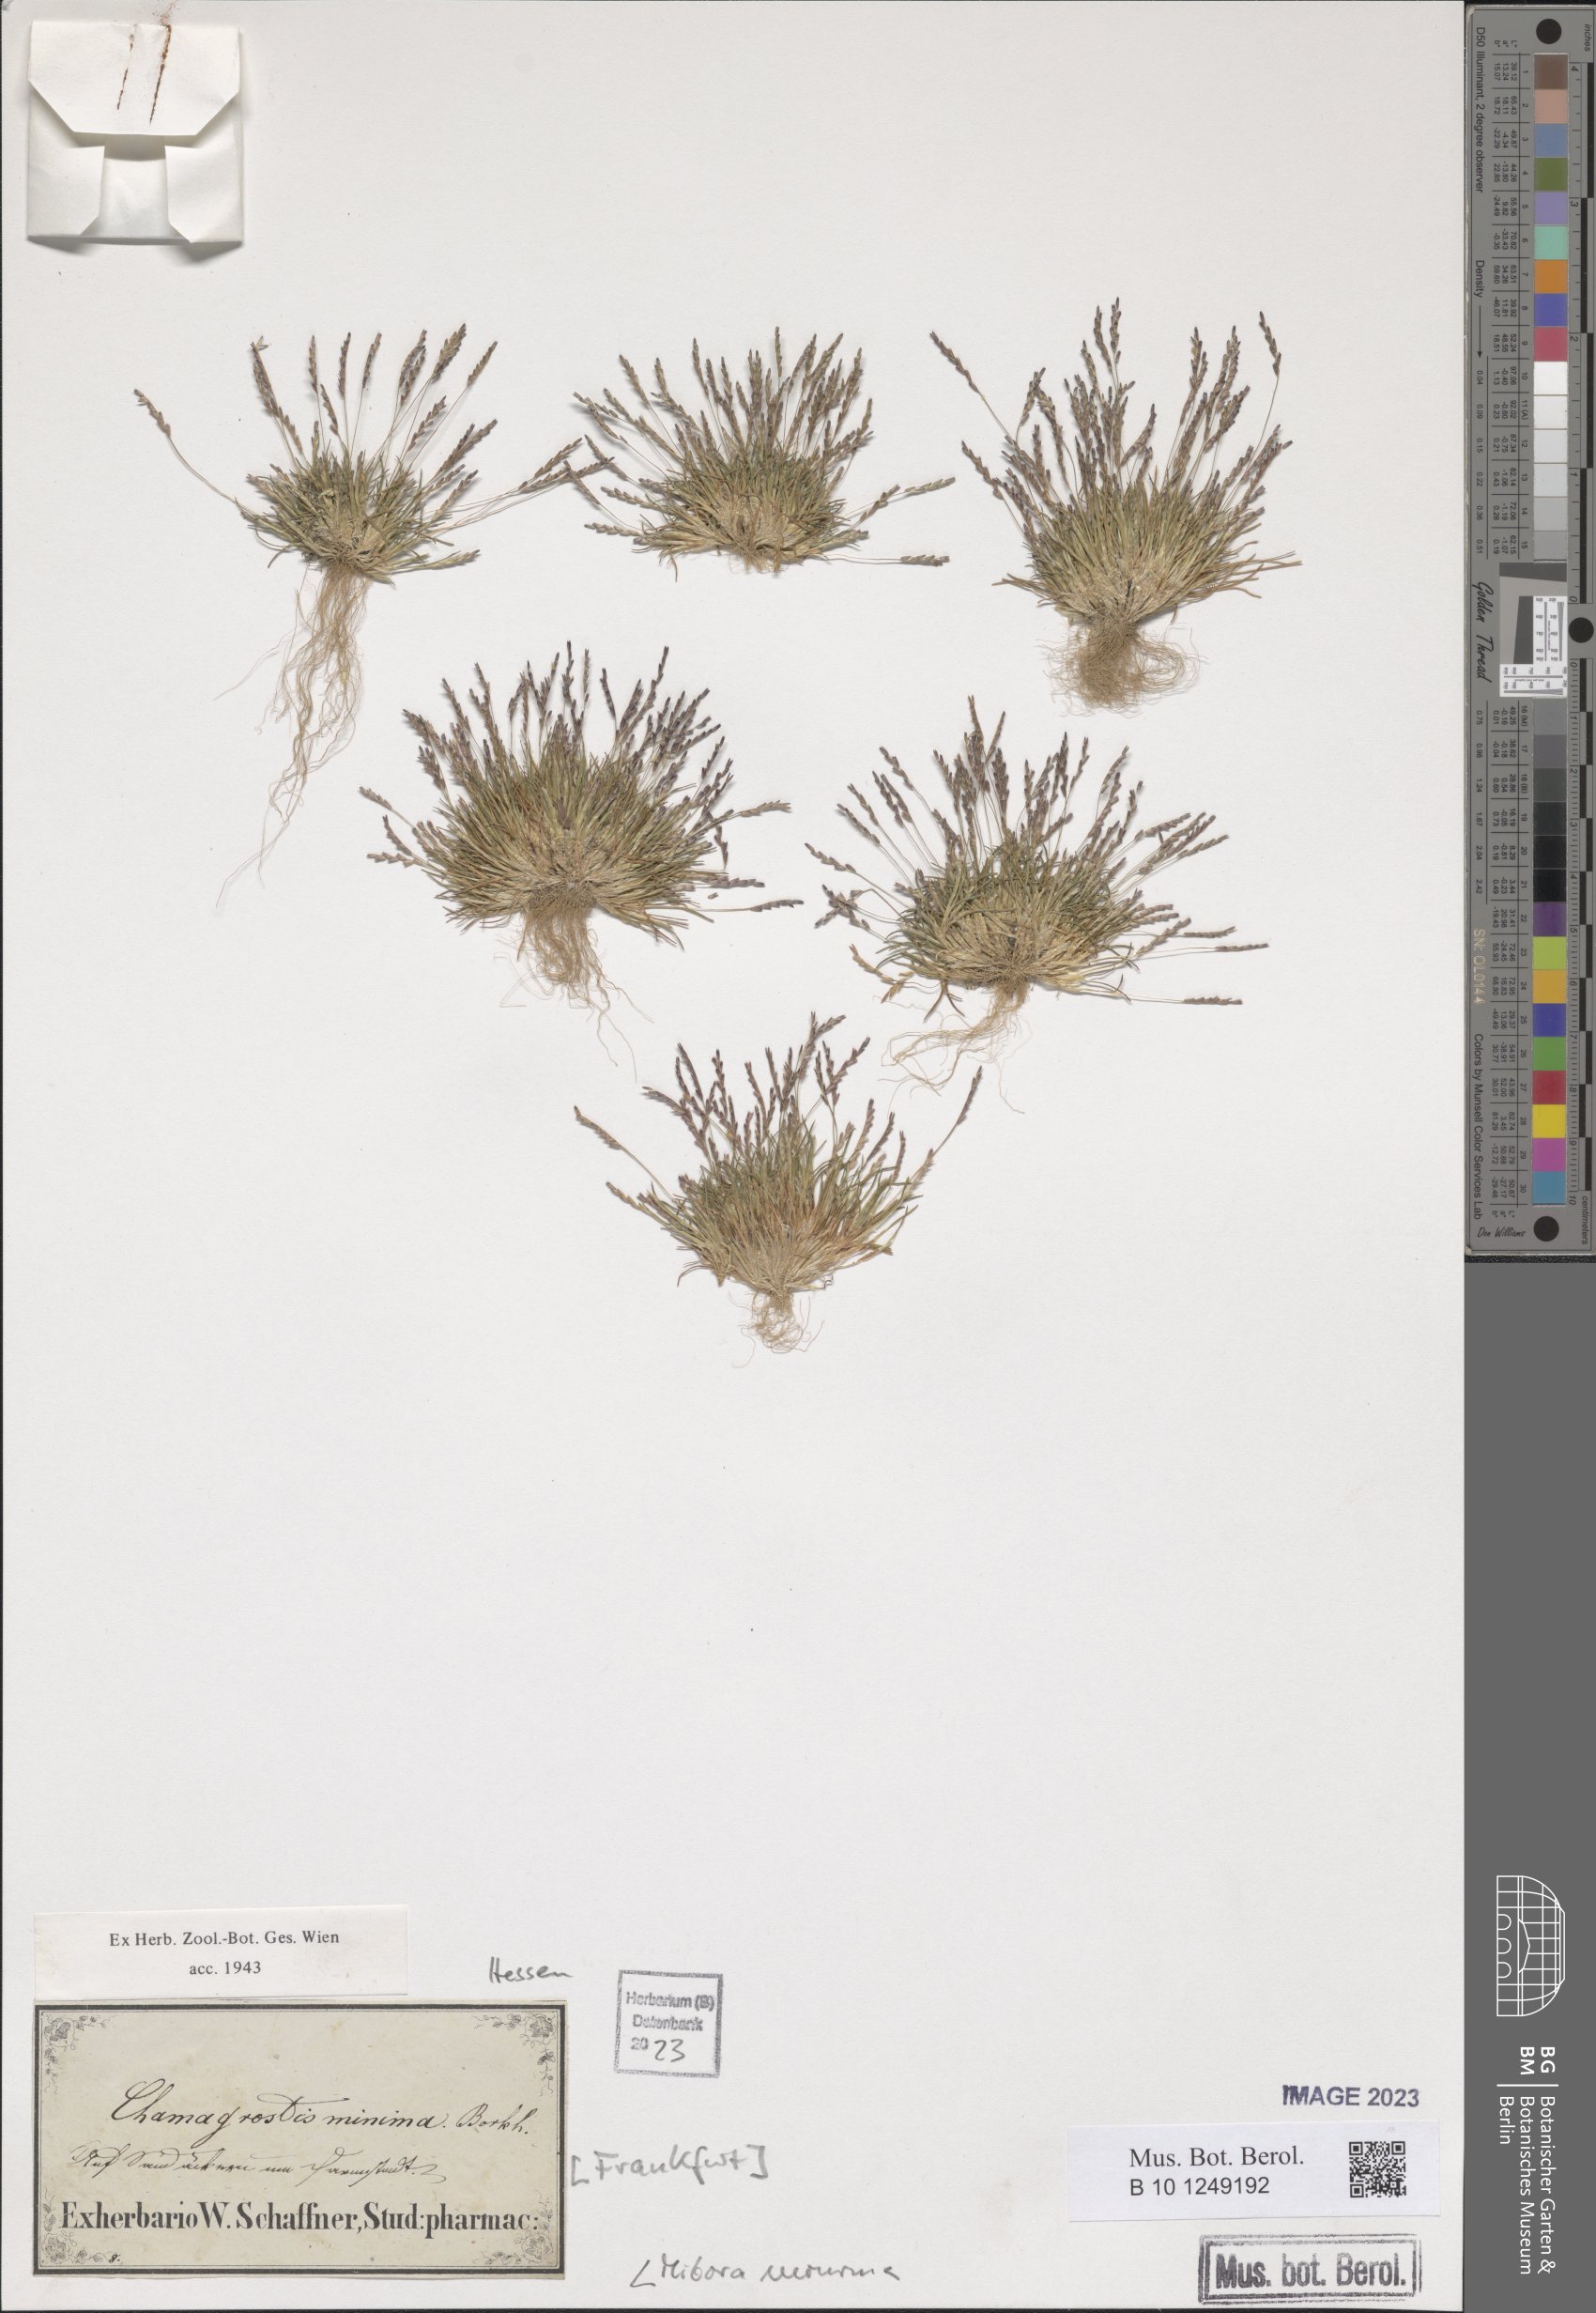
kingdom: Plantae
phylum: Tracheophyta
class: Liliopsida
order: Poales
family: Poaceae
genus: Mibora
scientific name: Mibora minima
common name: Early sand-grass
